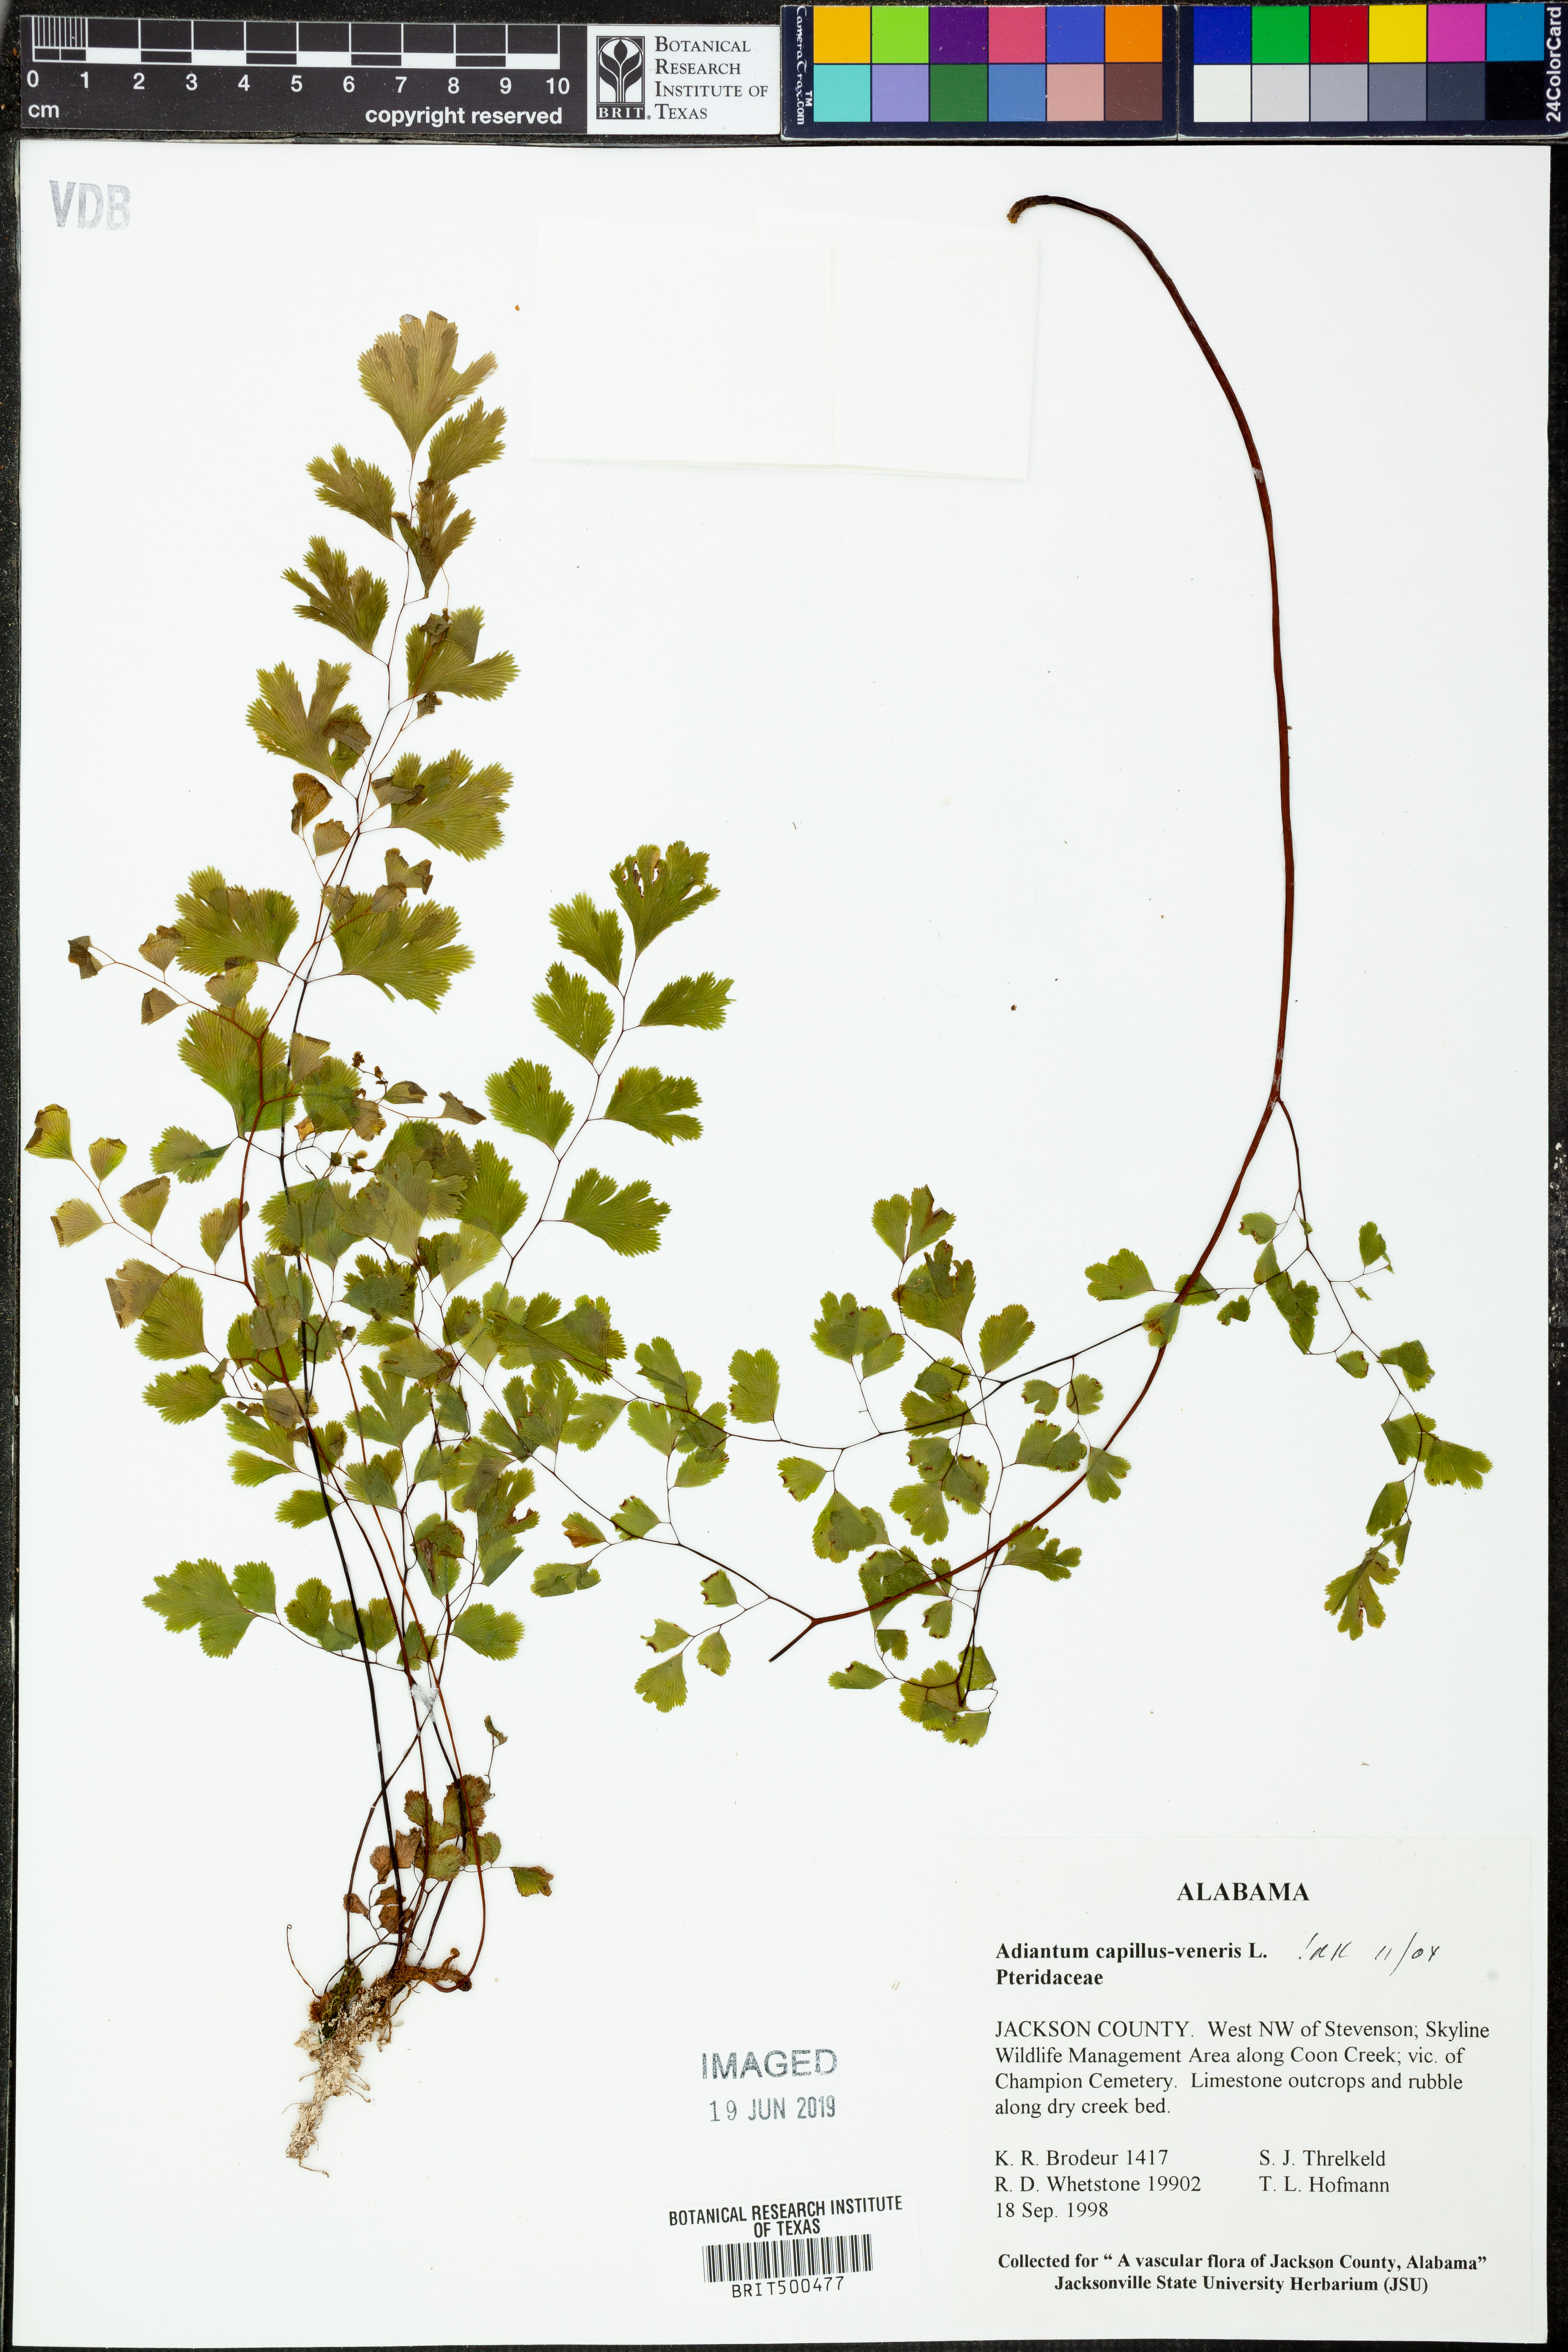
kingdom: Plantae
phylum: Tracheophyta
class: Polypodiopsida
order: Polypodiales
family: Pteridaceae
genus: Adiantum
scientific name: Adiantum capillus-veneris
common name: Maidenhair fern
